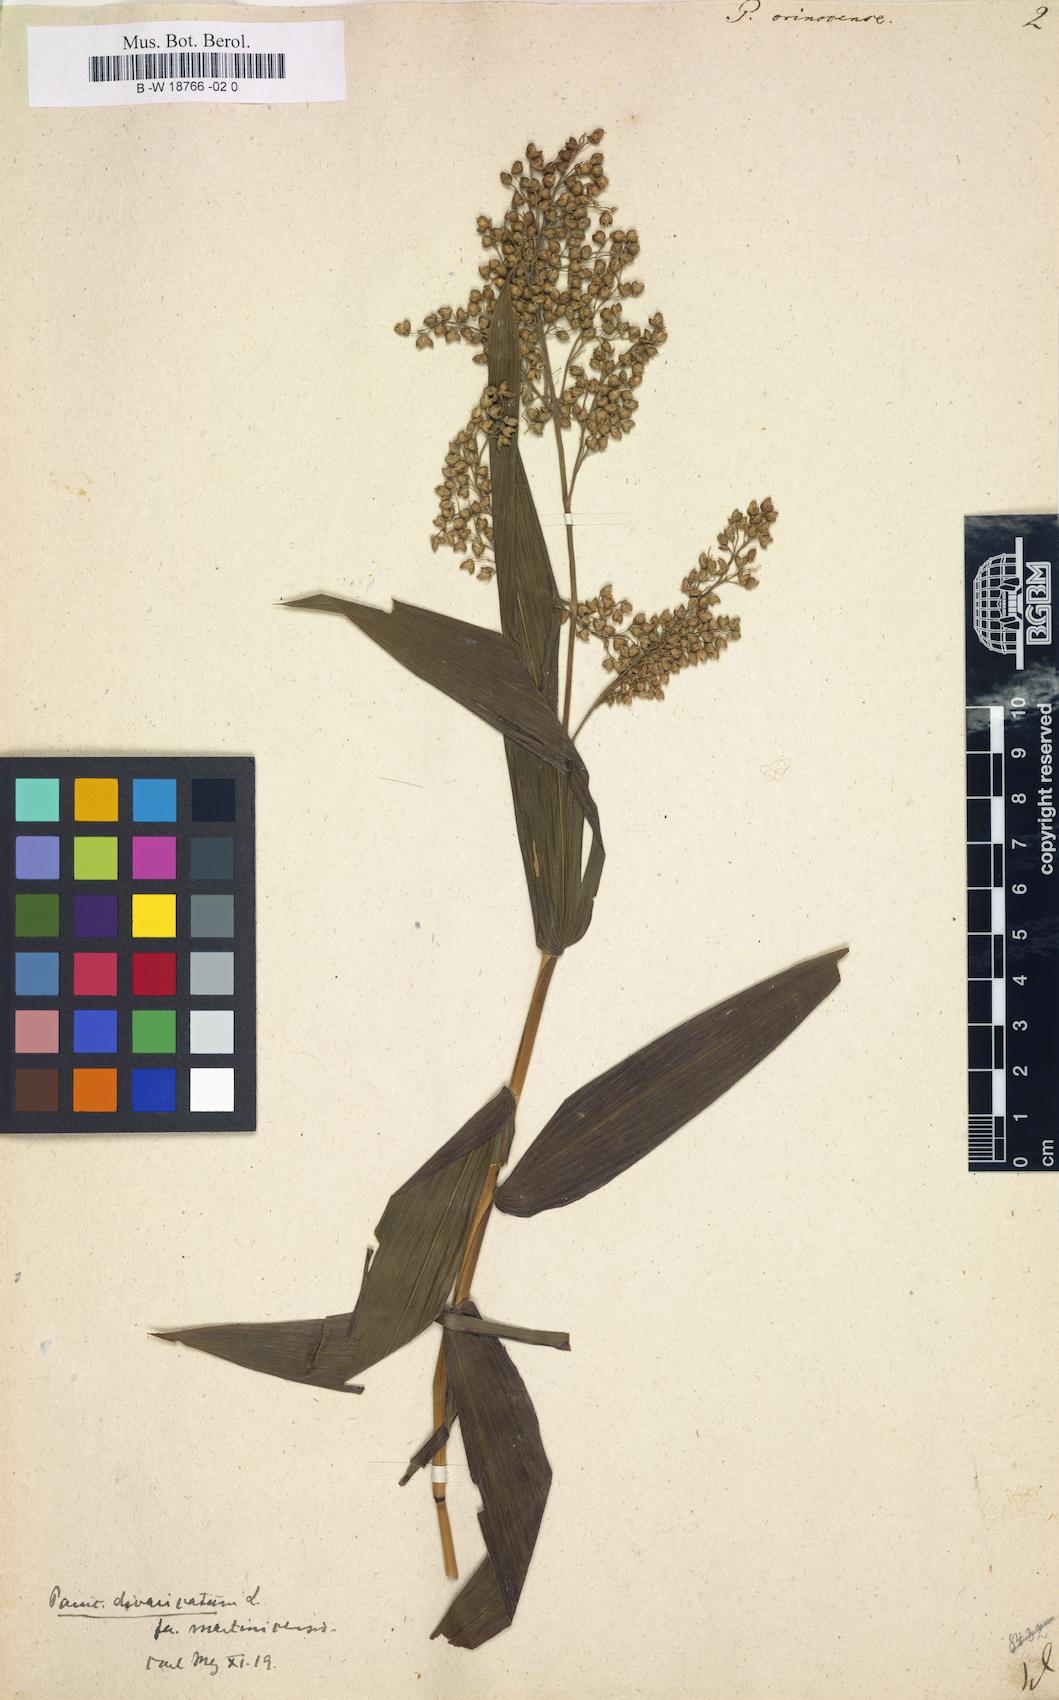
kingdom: Plantae
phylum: Tracheophyta
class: Liliopsida
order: Poales
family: Poaceae
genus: Lasiacis
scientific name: Lasiacis maculata
